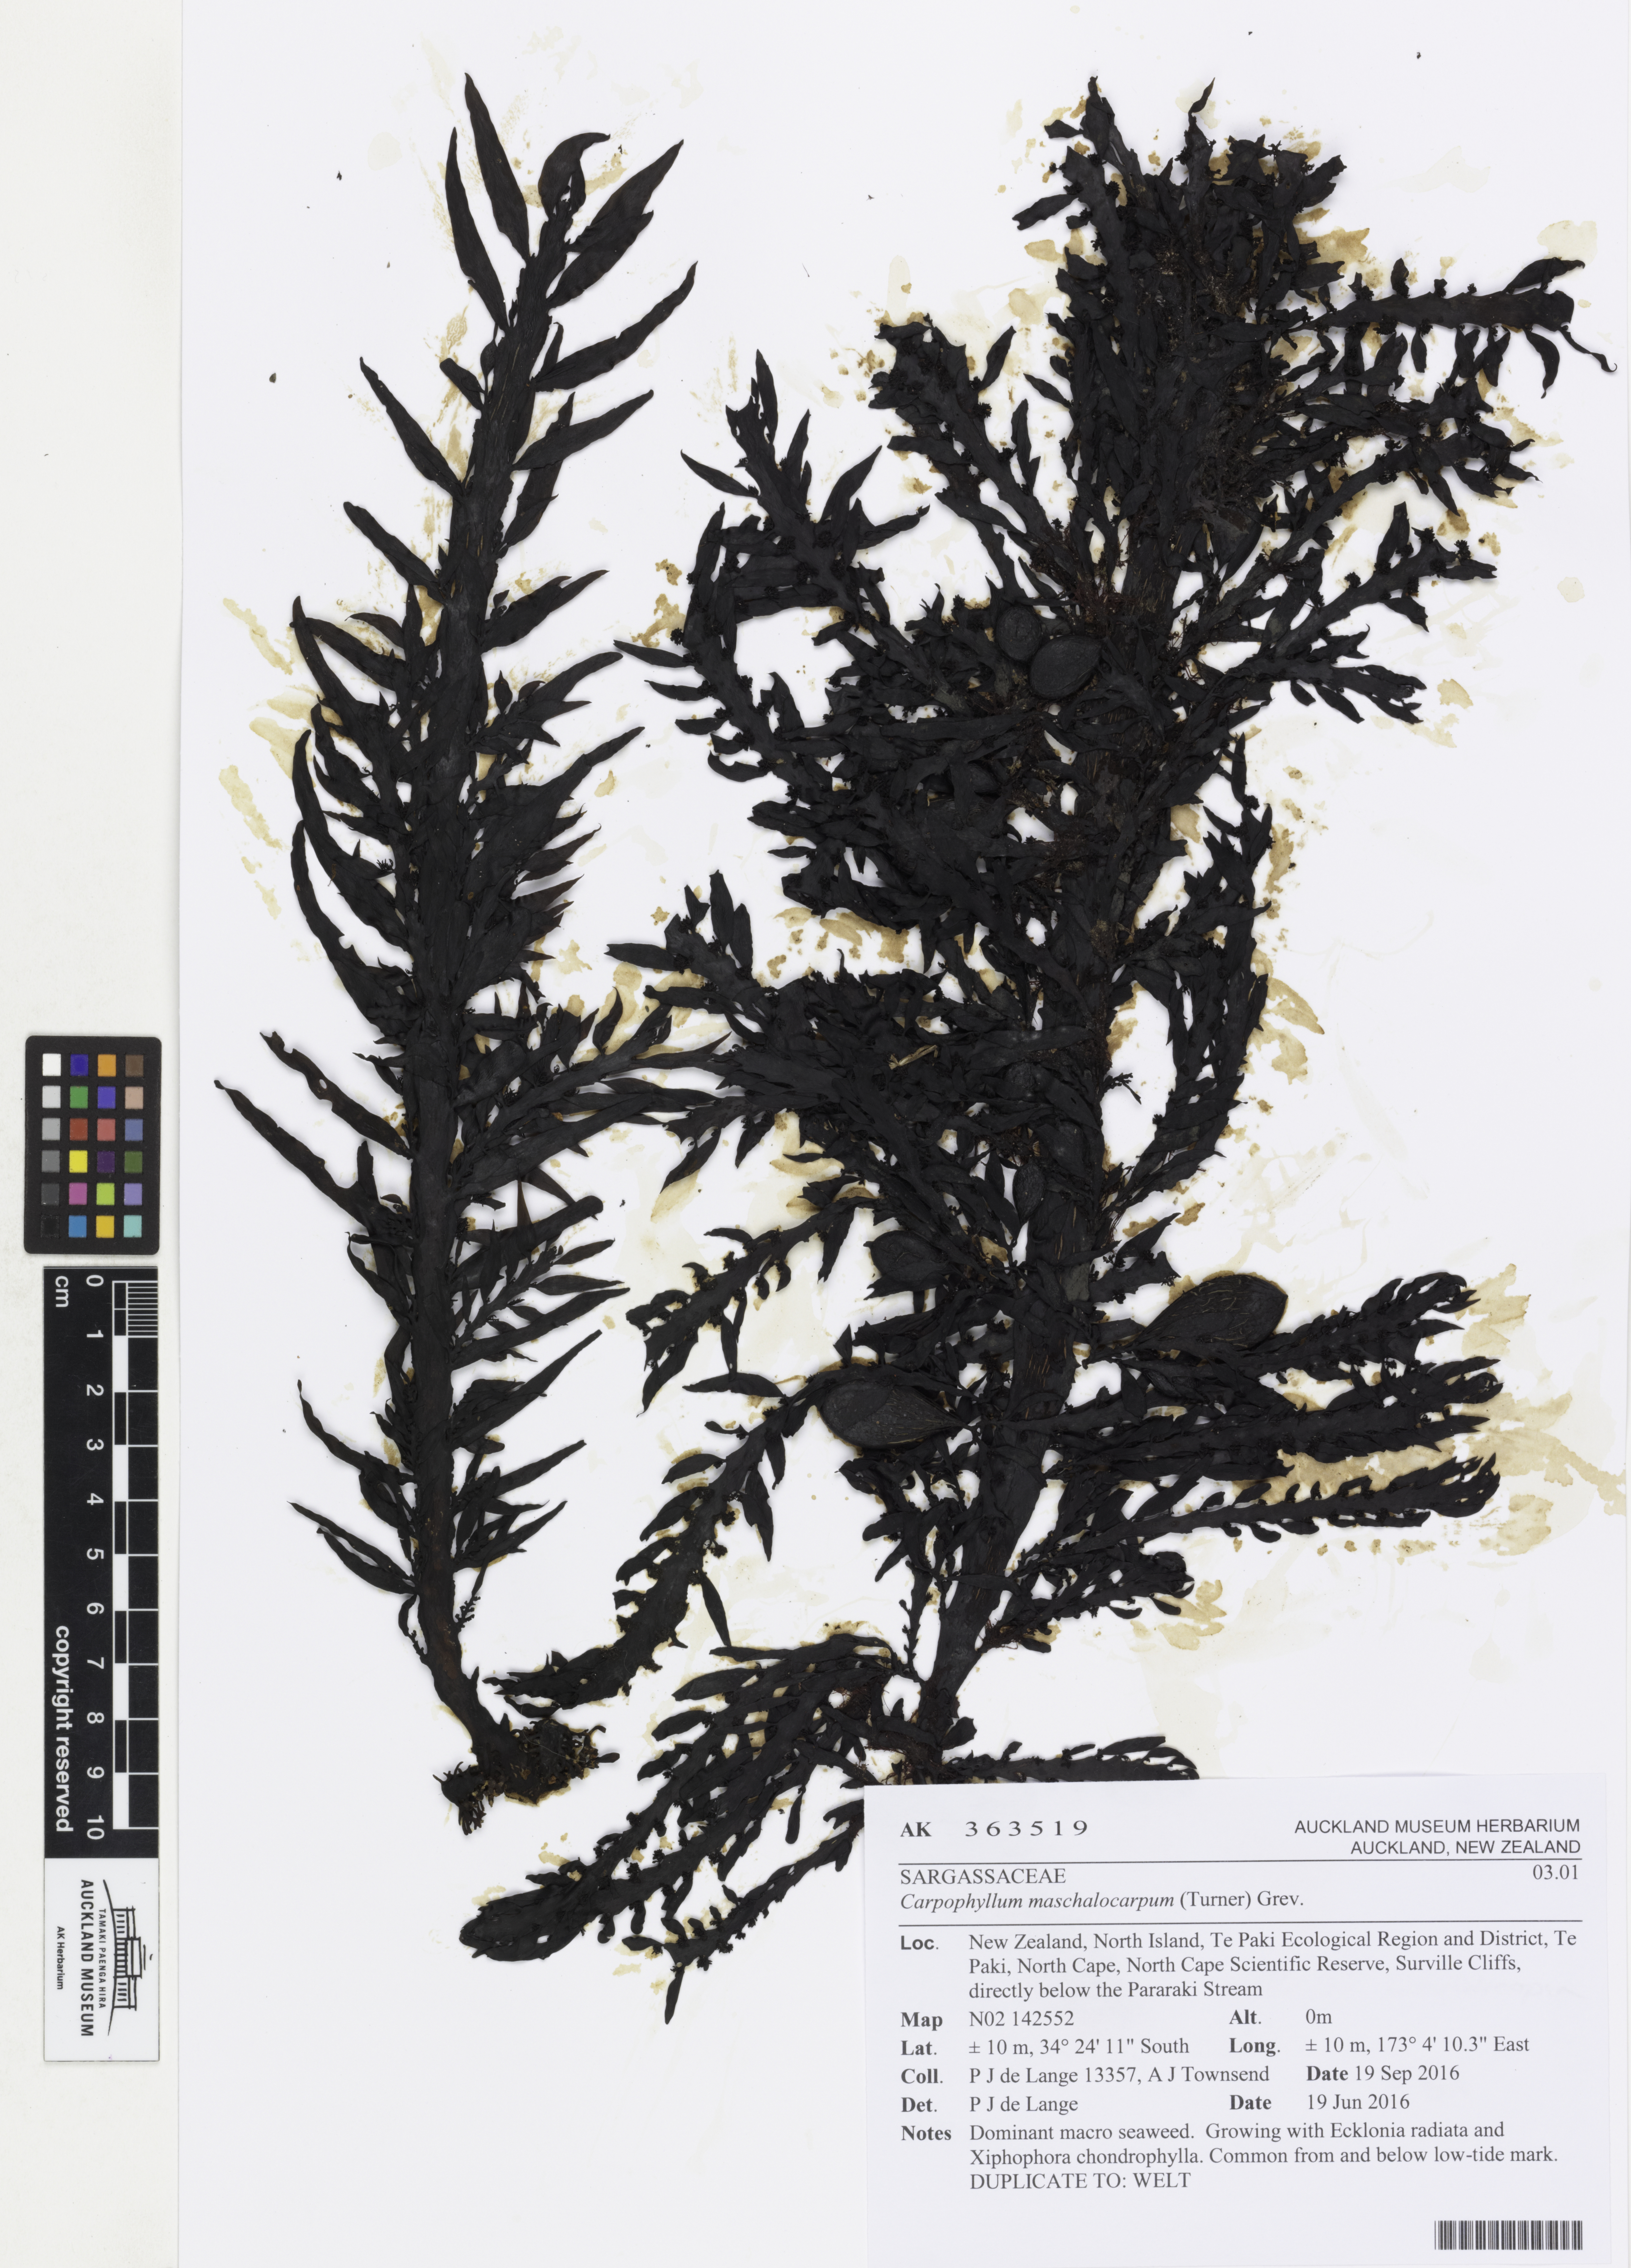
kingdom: Chromista
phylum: Ochrophyta
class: Phaeophyceae
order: Fucales
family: Sargassaceae
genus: Carpophyllum
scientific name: Carpophyllum maschalocarpum
